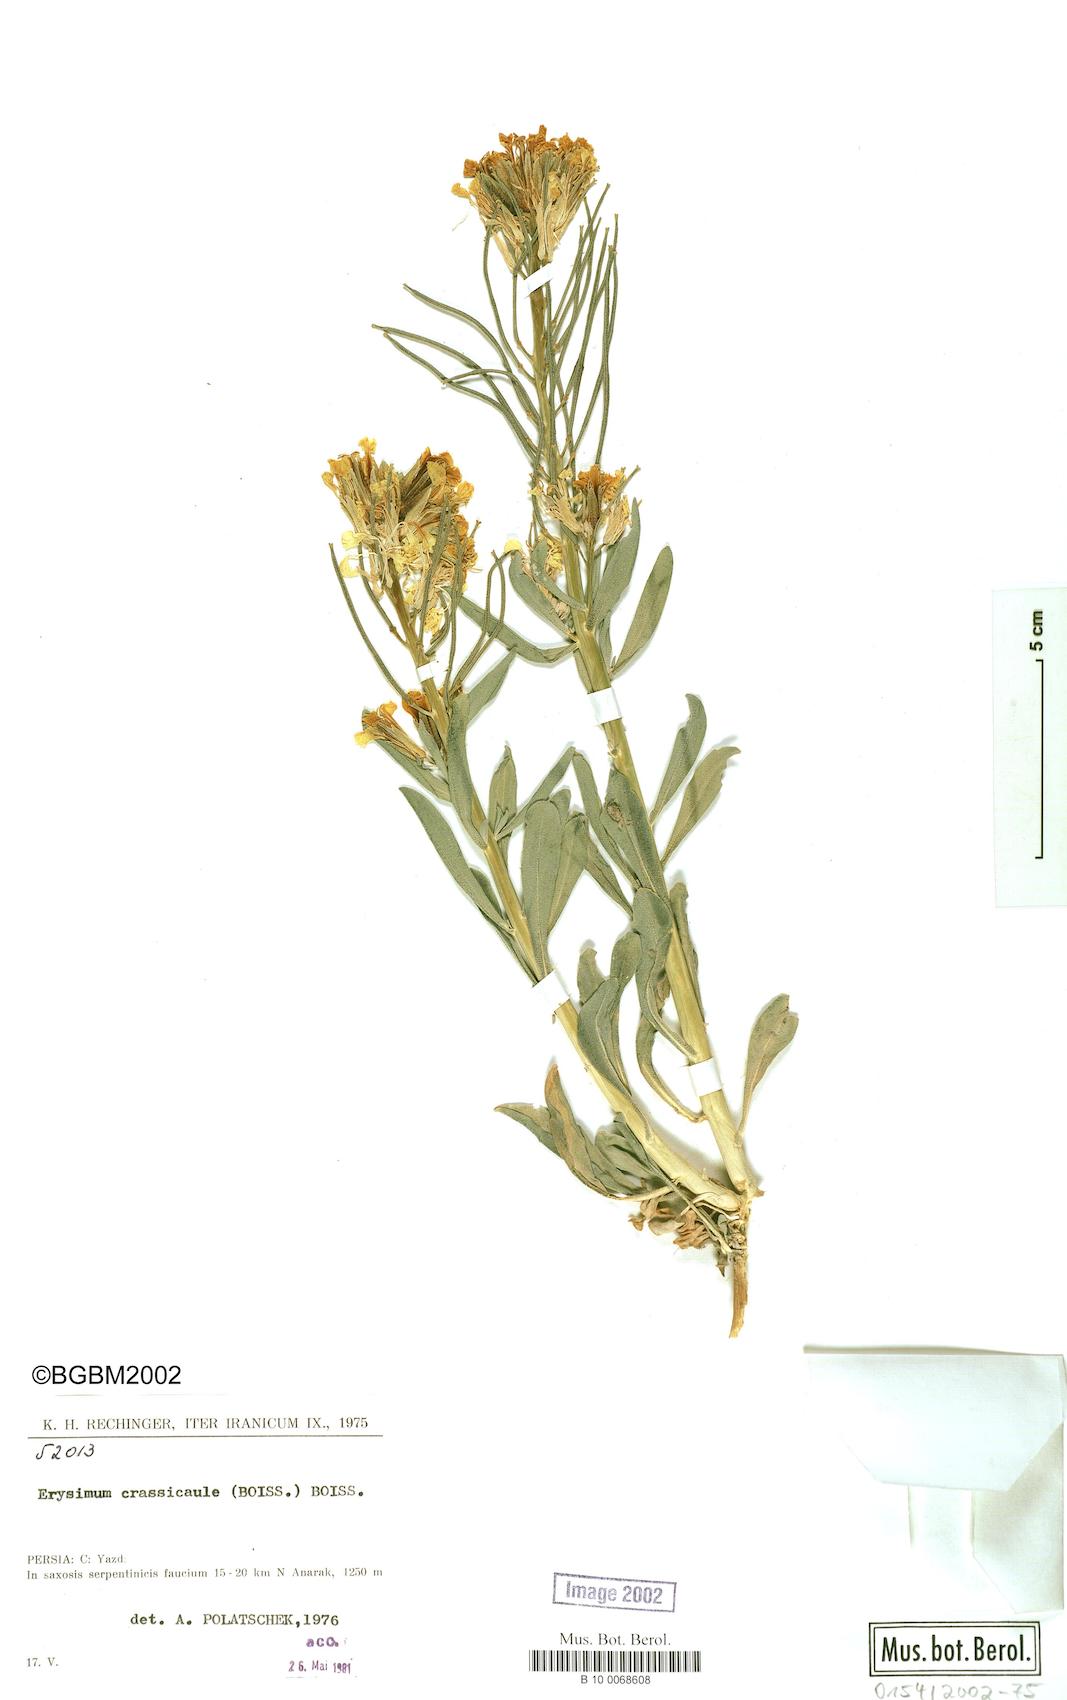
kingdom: Plantae
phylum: Tracheophyta
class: Magnoliopsida
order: Brassicales
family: Brassicaceae
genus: Erysimum
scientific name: Erysimum crassicaule
